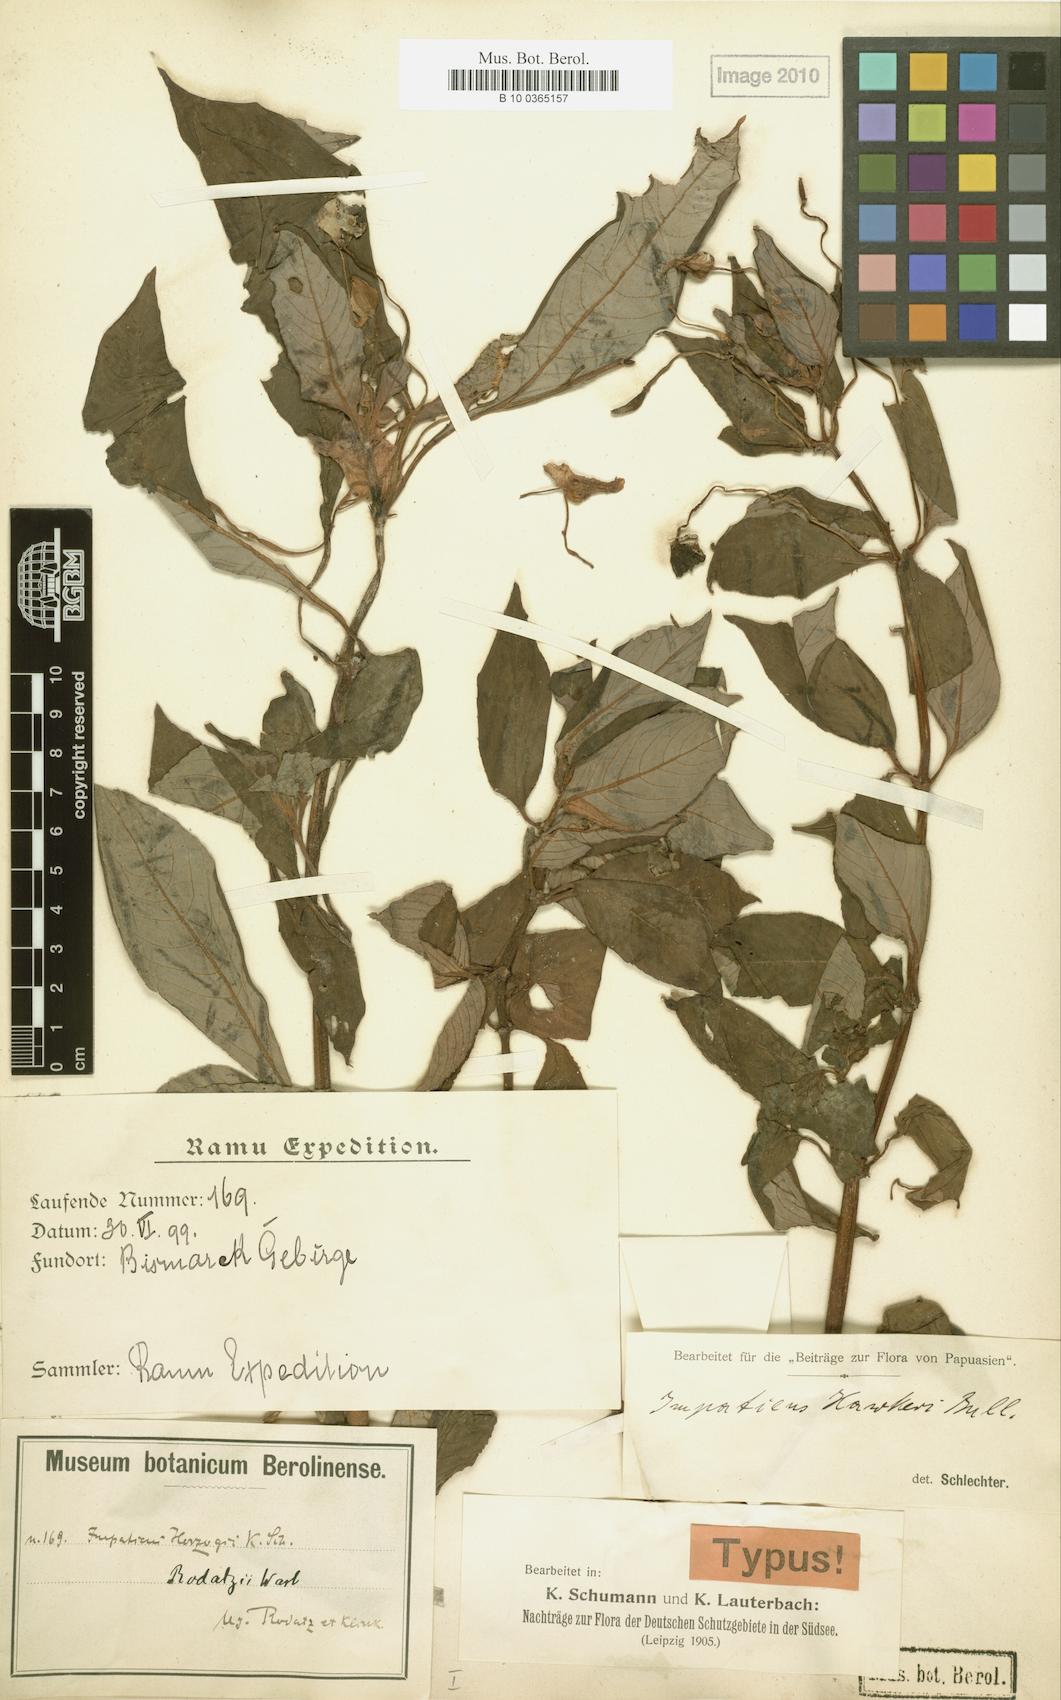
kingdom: Plantae
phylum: Tracheophyta
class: Magnoliopsida
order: Ericales
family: Balsaminaceae
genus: Impatiens
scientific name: Impatiens hawkeri
